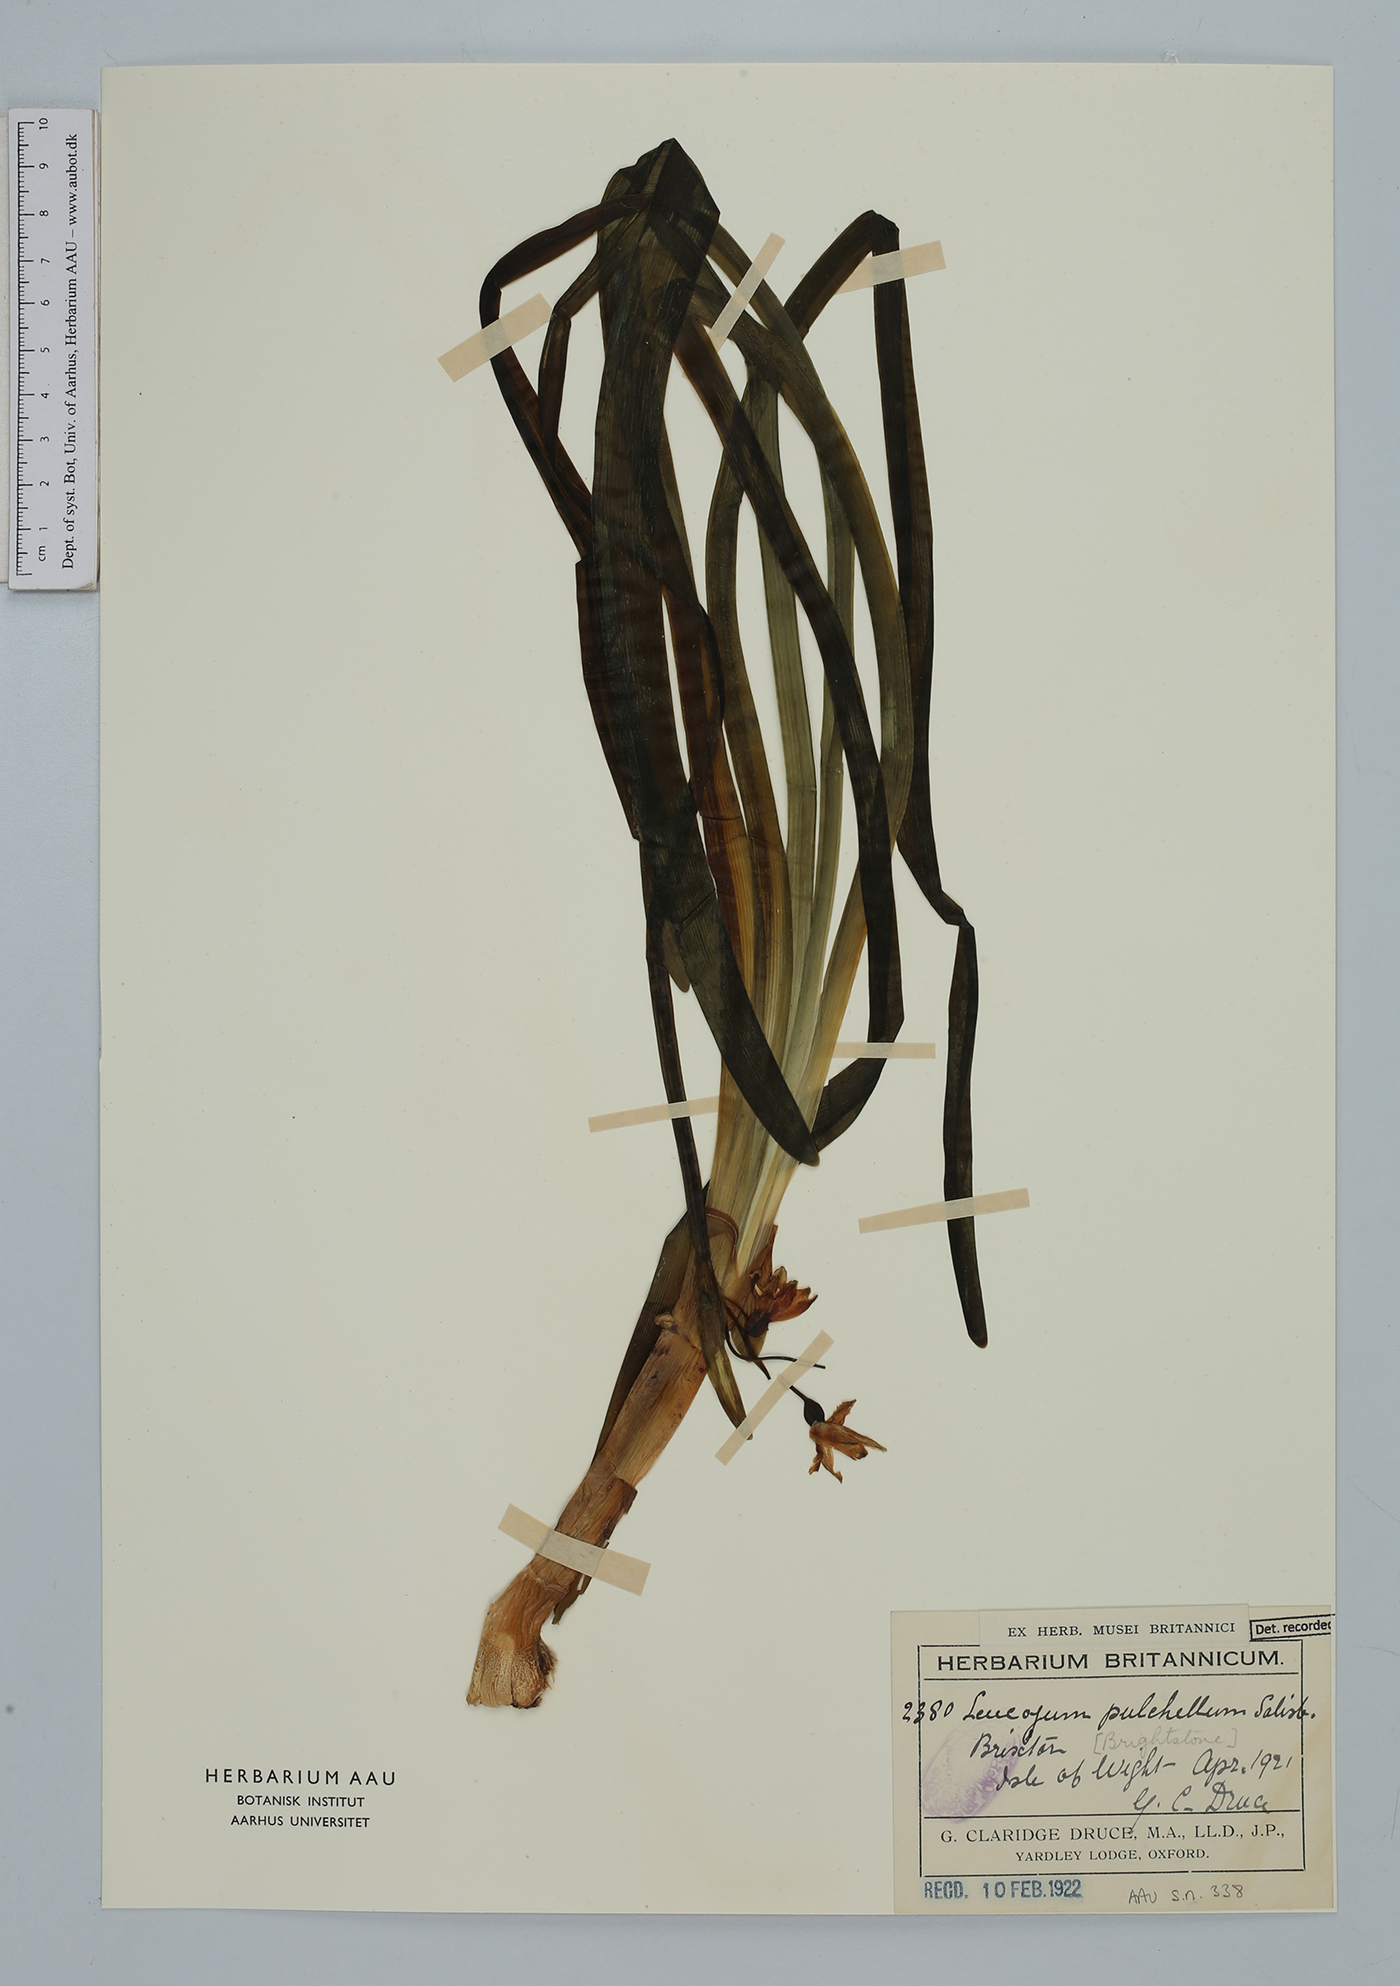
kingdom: Plantae
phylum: Tracheophyta
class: Liliopsida
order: Asparagales
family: Amaryllidaceae
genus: Leucojum
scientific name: Leucojum aestivum
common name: Summer snowflake
